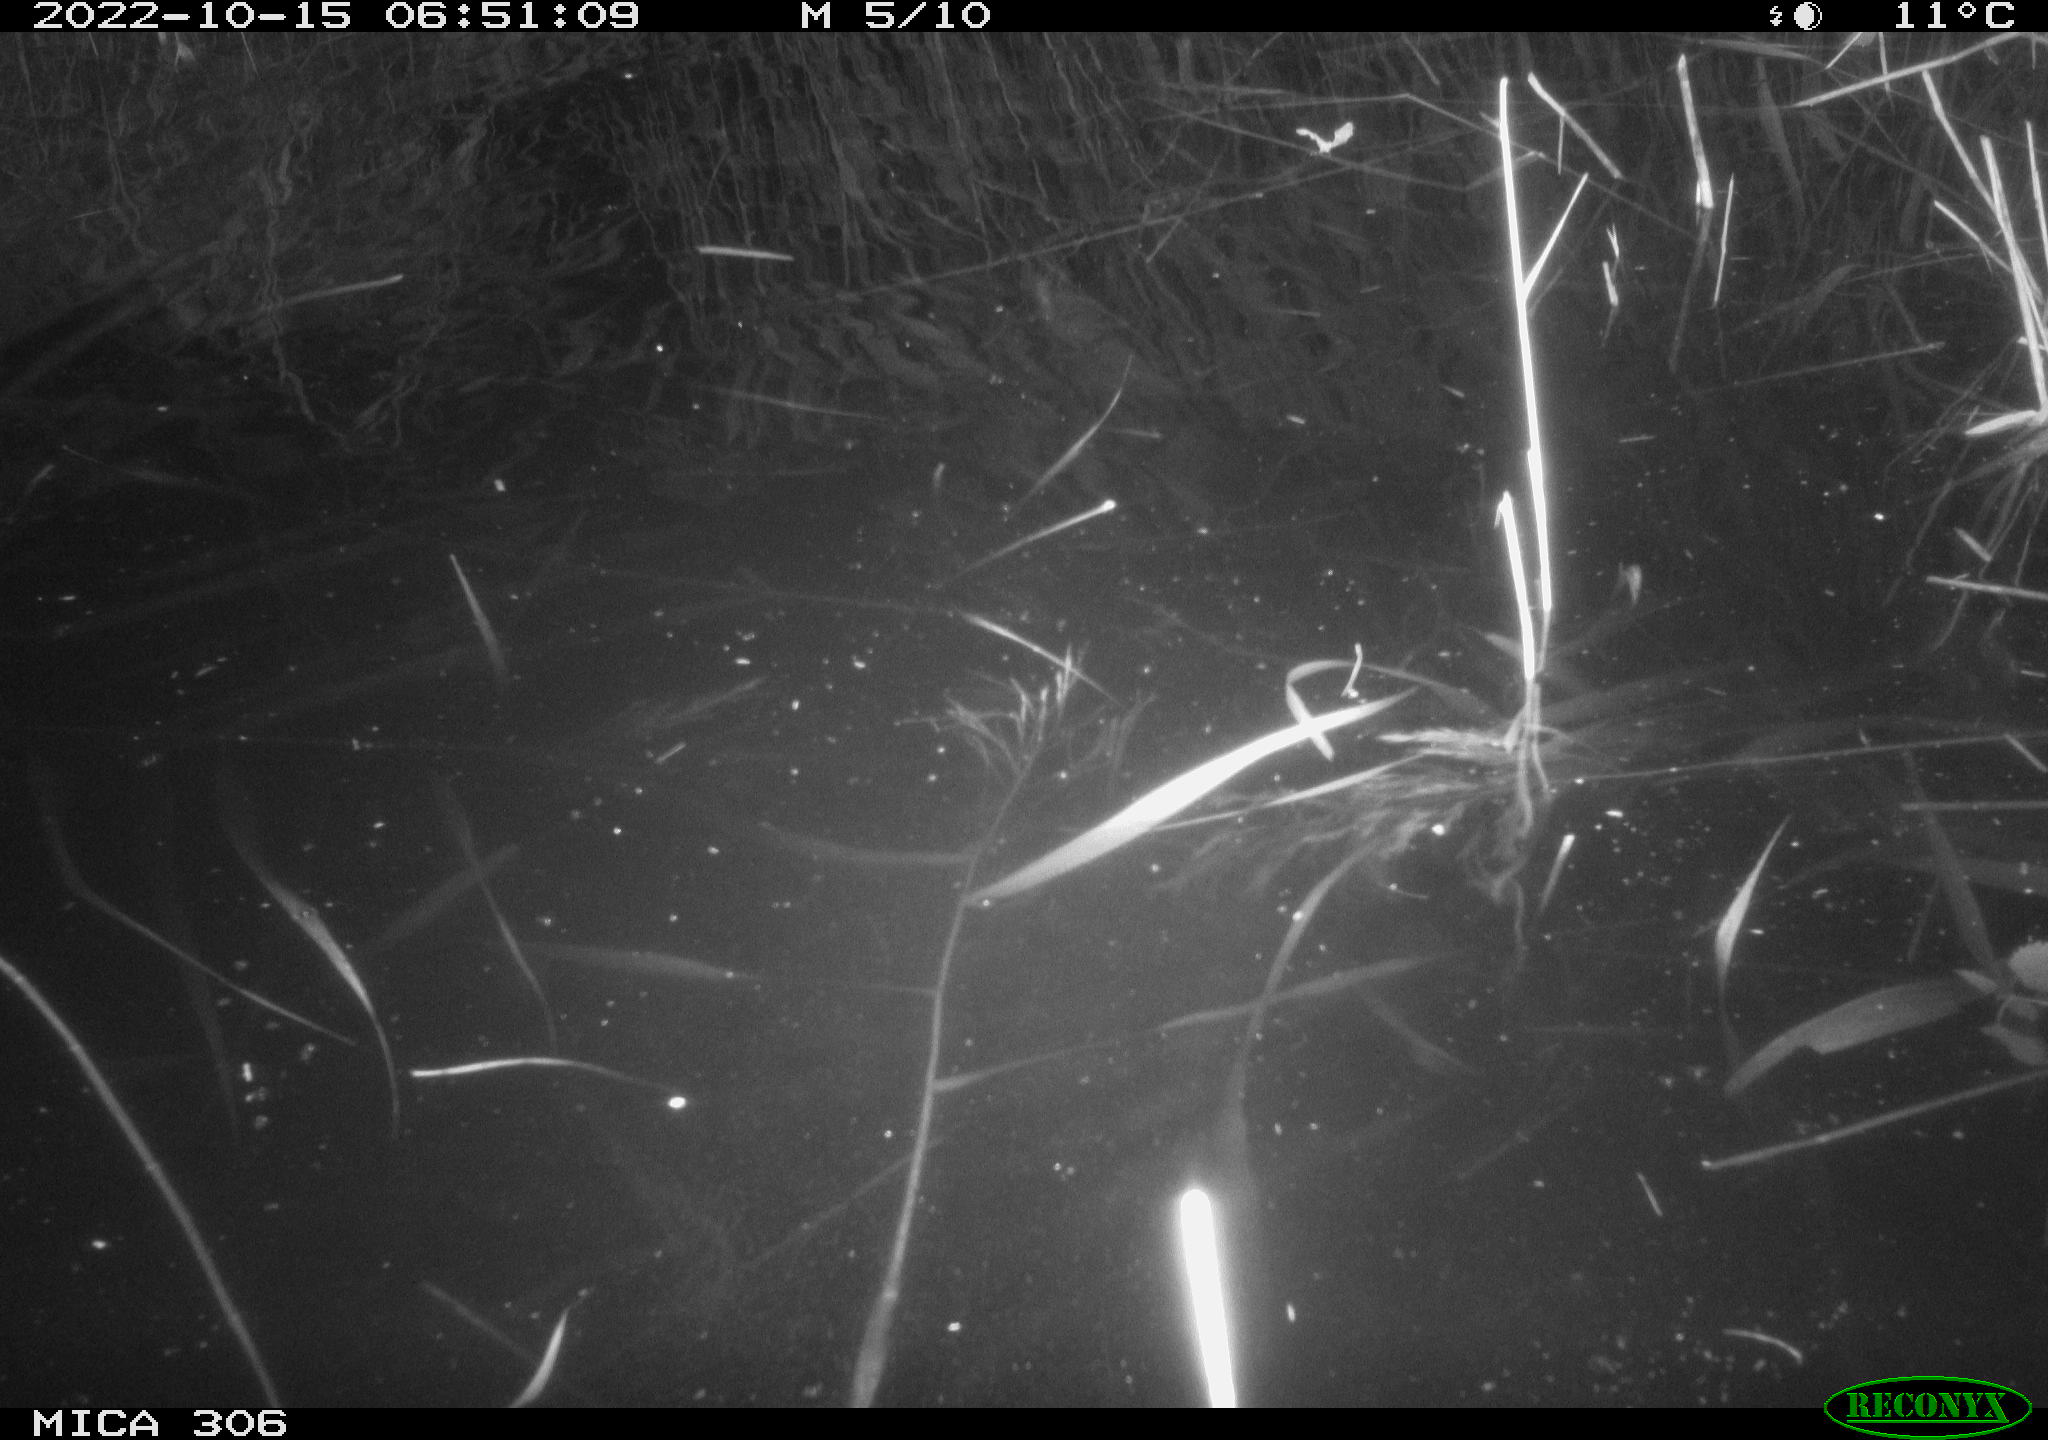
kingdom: Animalia
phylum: Chordata
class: Mammalia
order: Rodentia
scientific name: Rodentia
